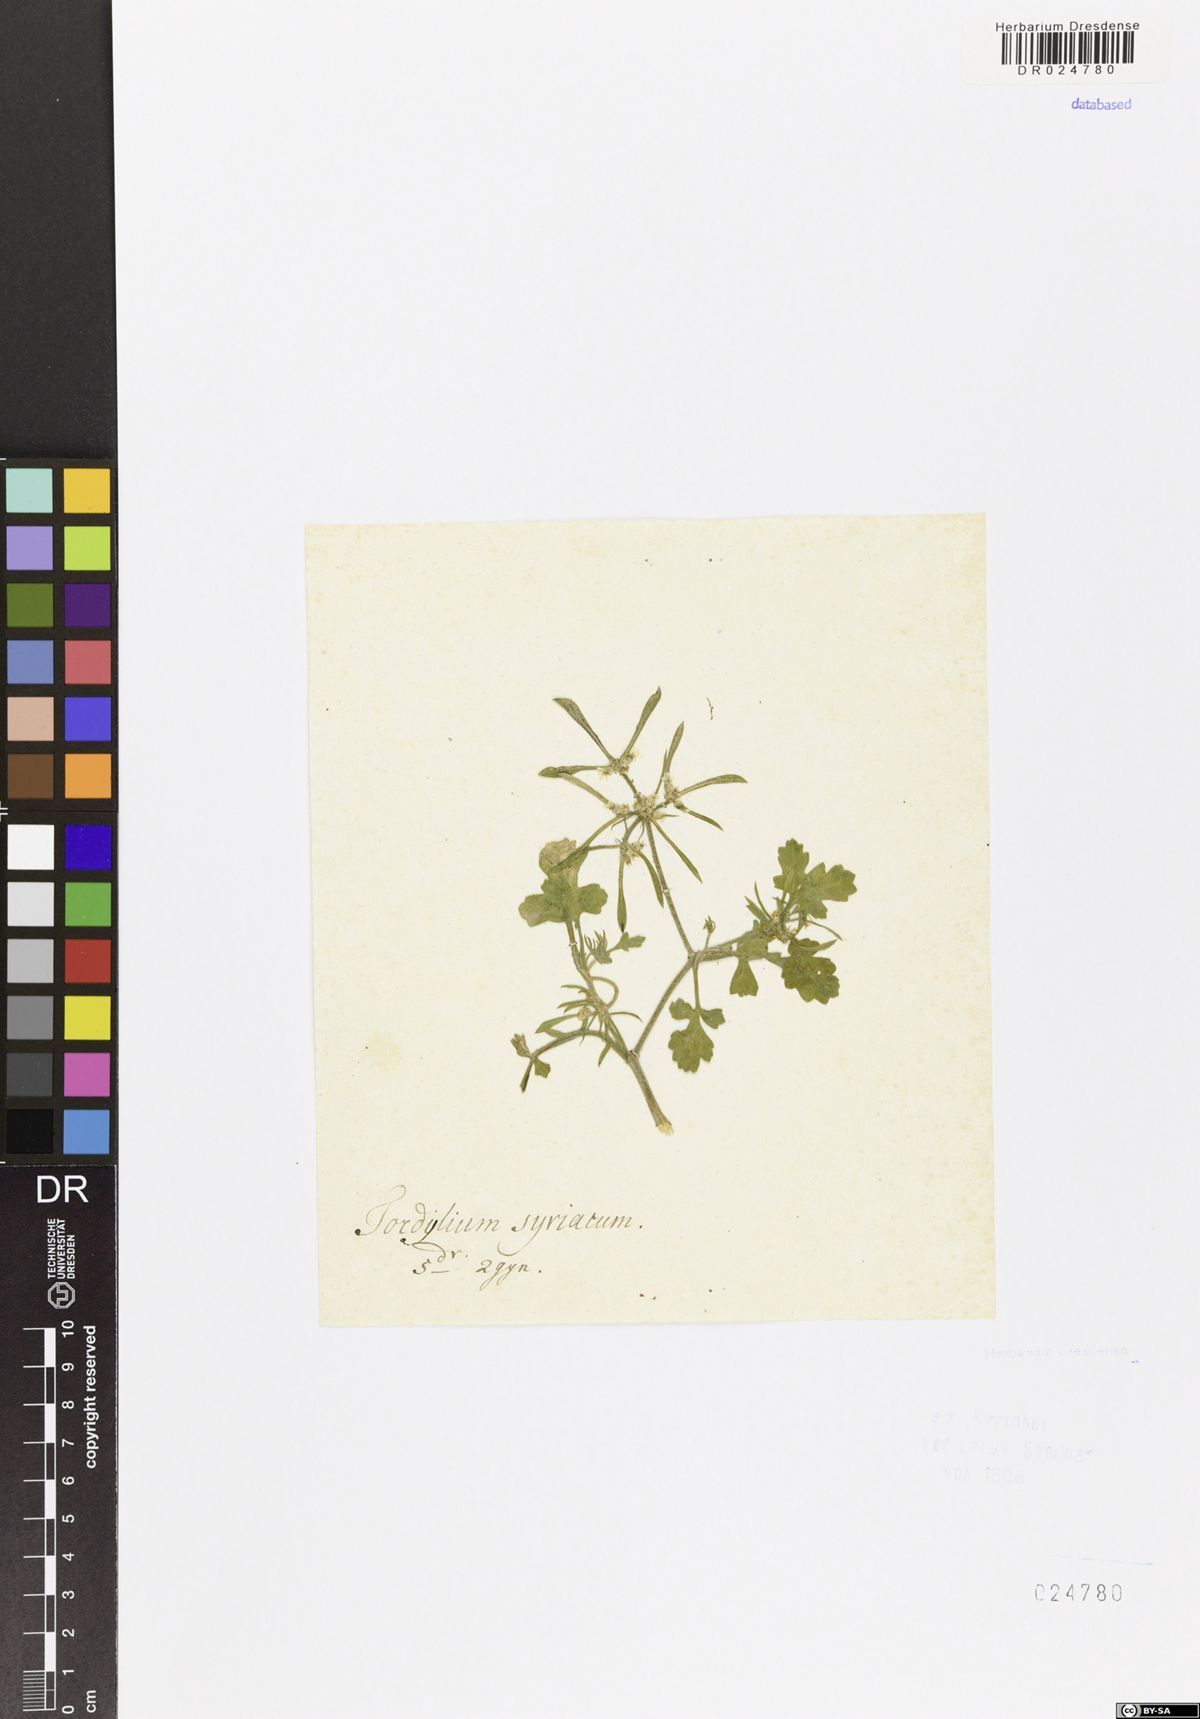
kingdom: Plantae
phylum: Tracheophyta
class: Magnoliopsida
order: Apiales
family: Apiaceae
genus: Tordylium
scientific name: Tordylium syriacum
